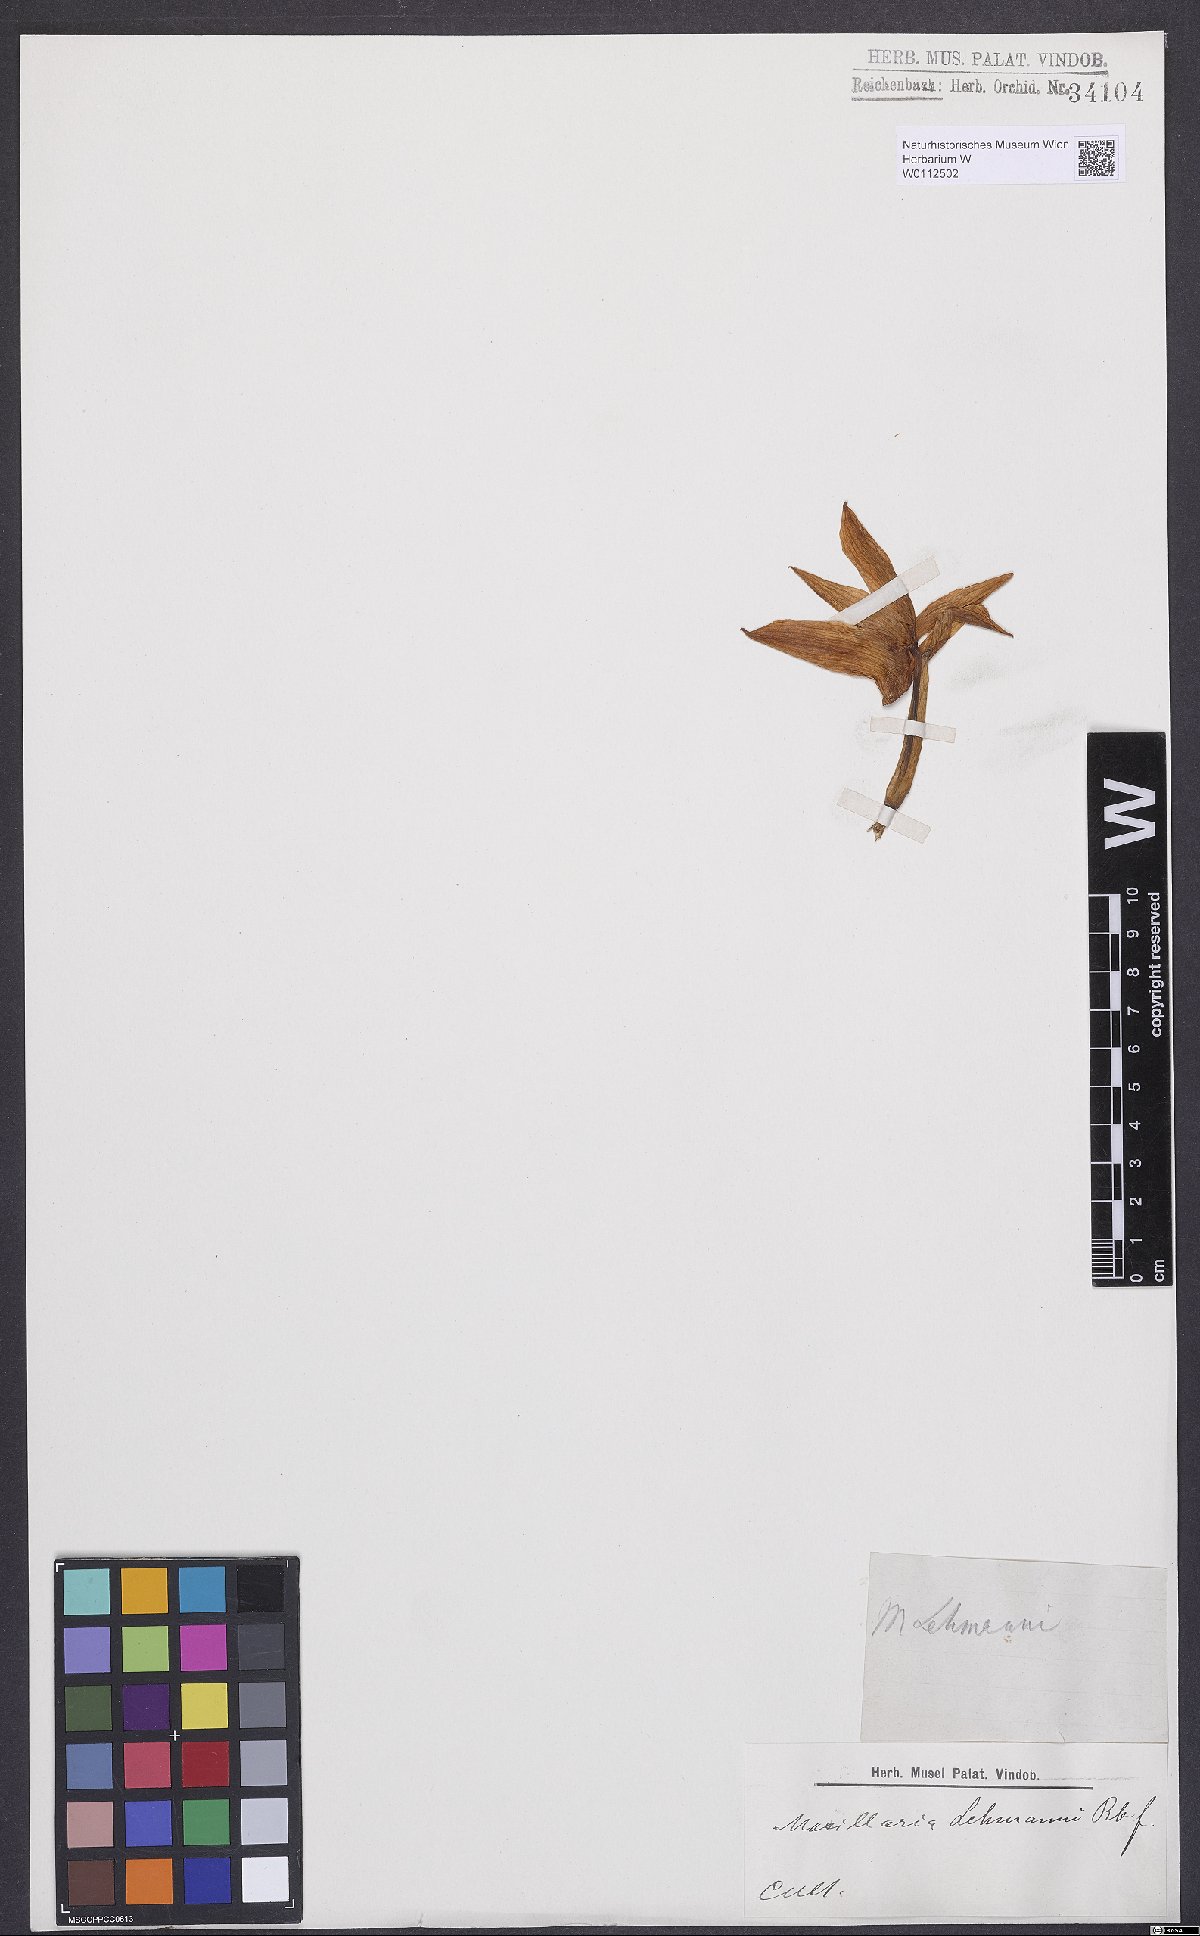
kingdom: Plantae
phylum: Tracheophyta
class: Liliopsida
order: Asparagales
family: Orchidaceae
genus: Maxillaria
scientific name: Maxillaria lehmannii
